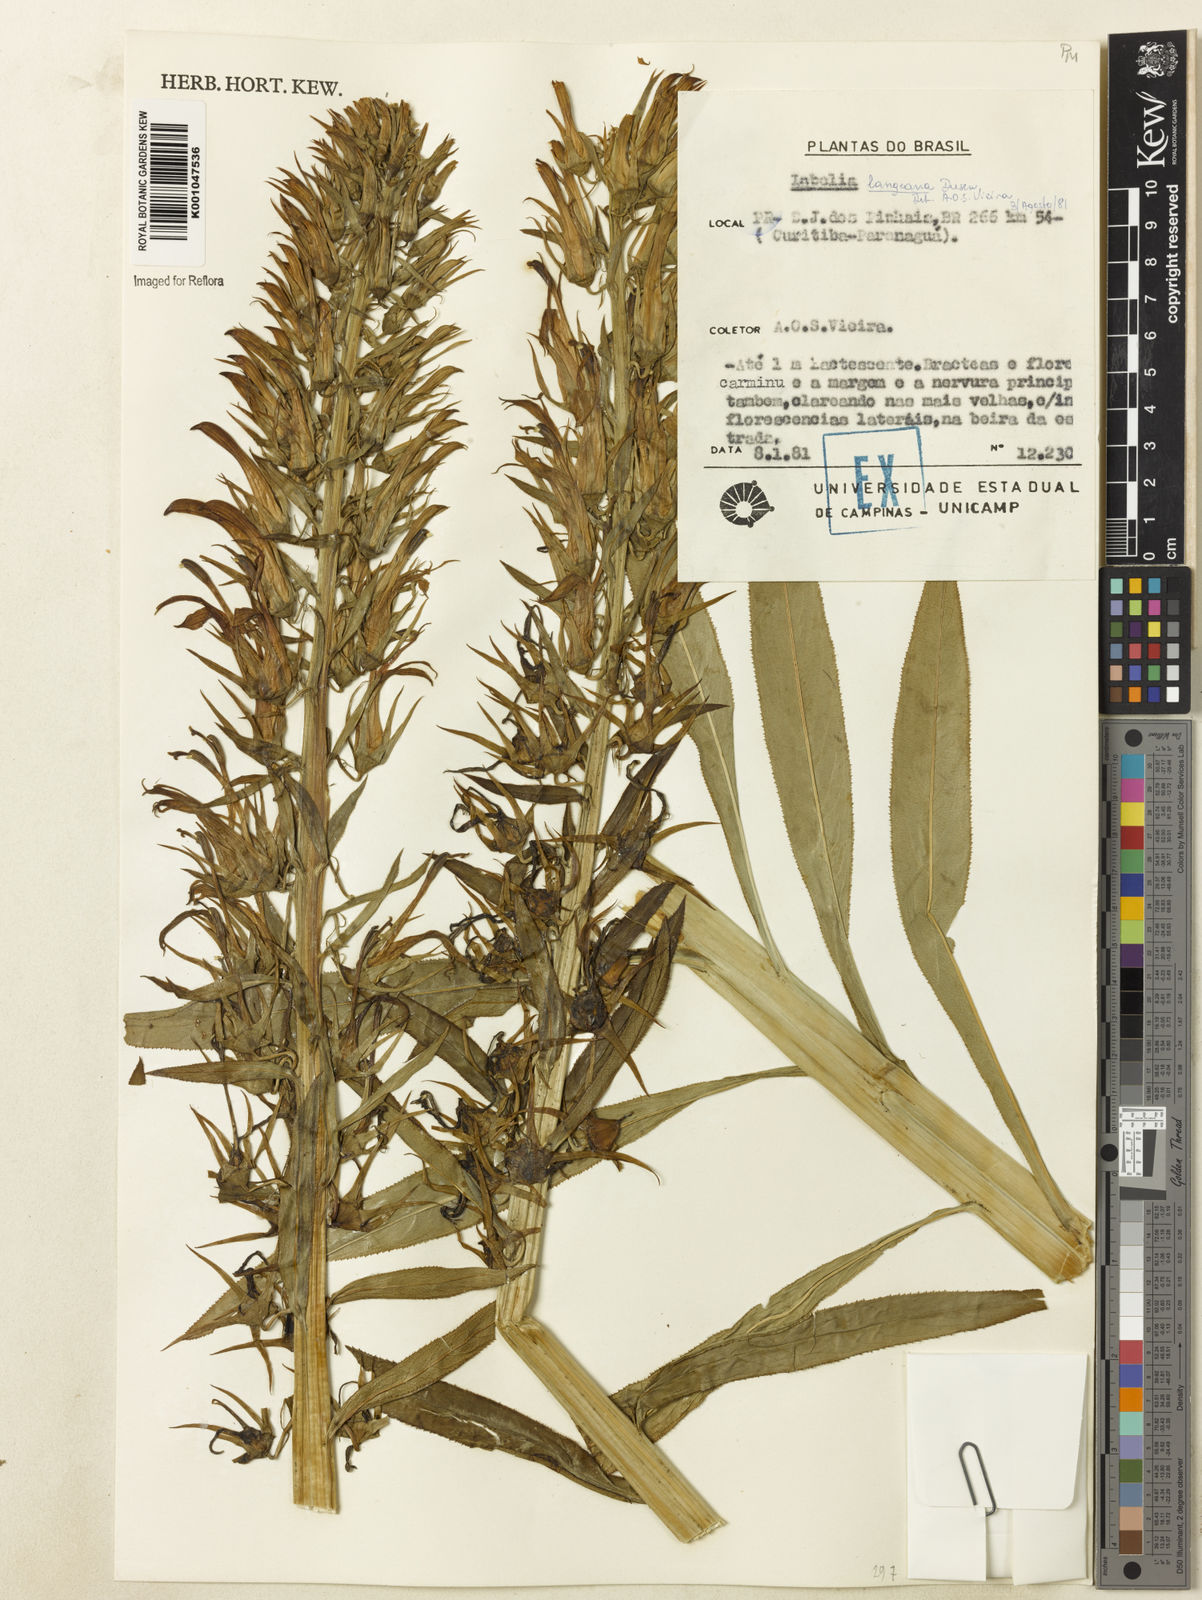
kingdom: Plantae
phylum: Tracheophyta
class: Magnoliopsida
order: Asterales
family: Campanulaceae
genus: Lobelia
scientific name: Lobelia
